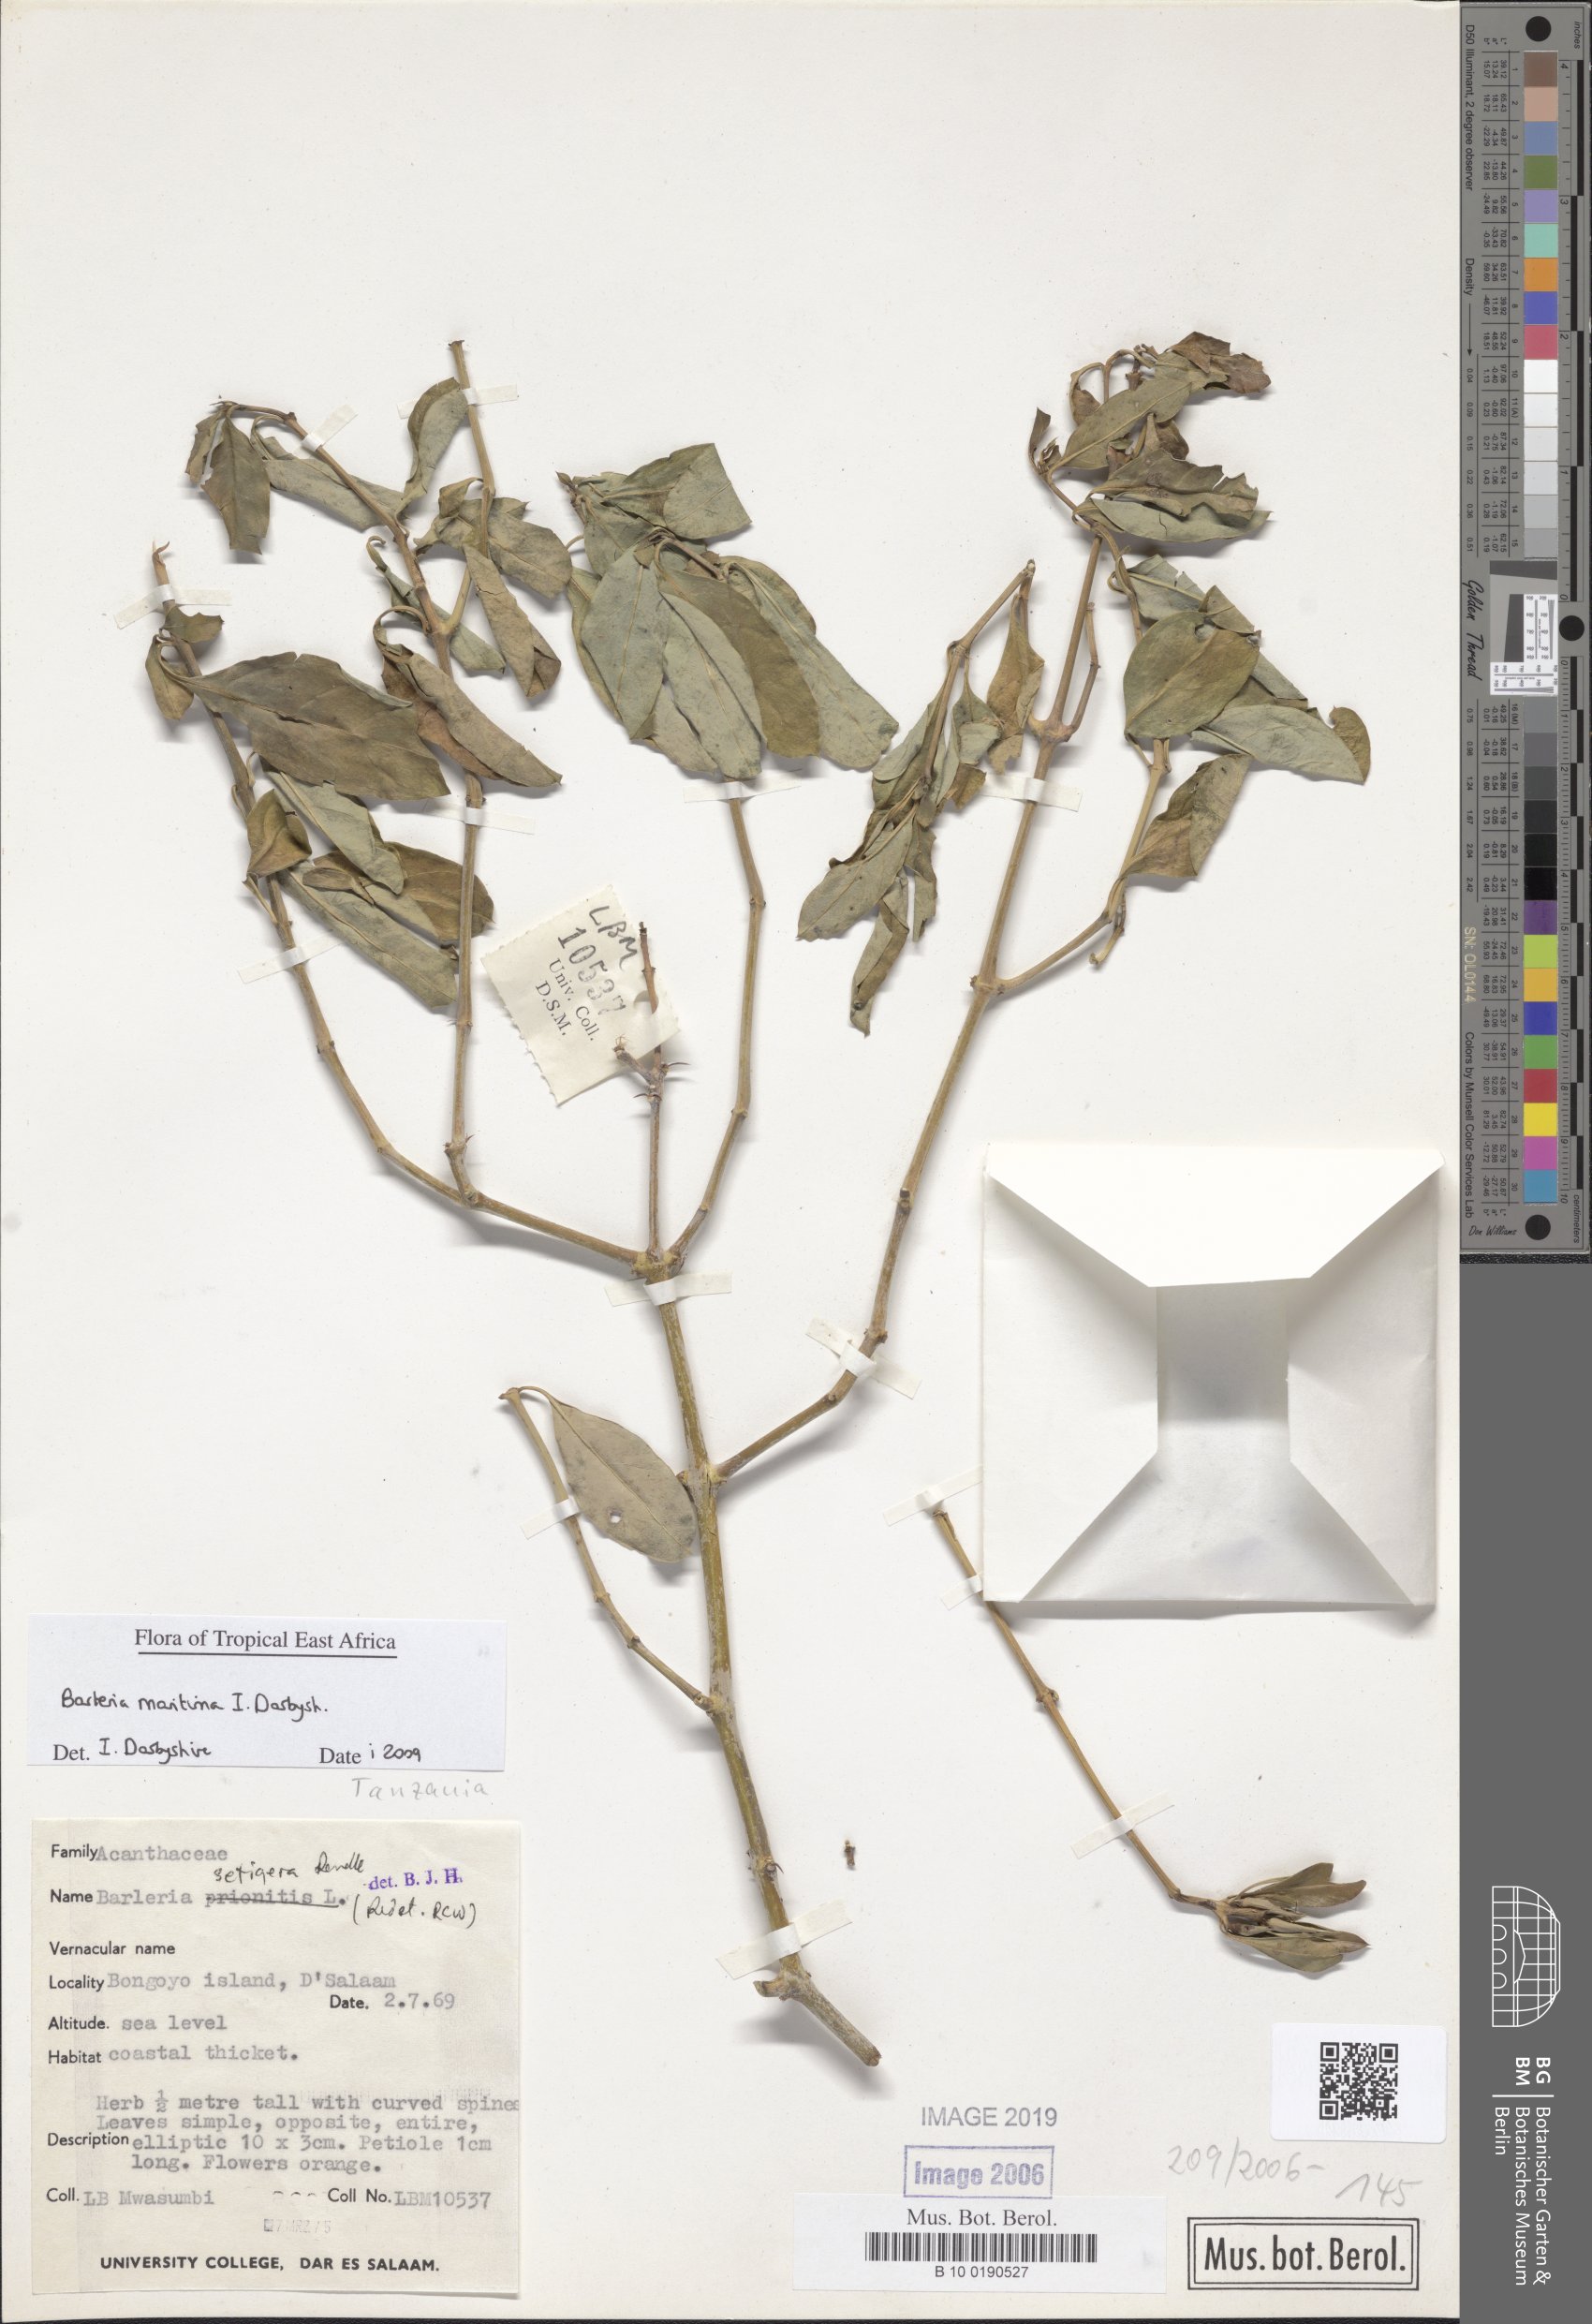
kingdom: Plantae
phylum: Tracheophyta
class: Magnoliopsida
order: Lamiales
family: Acanthaceae
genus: Barleria
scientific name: Barleria quadrispina
